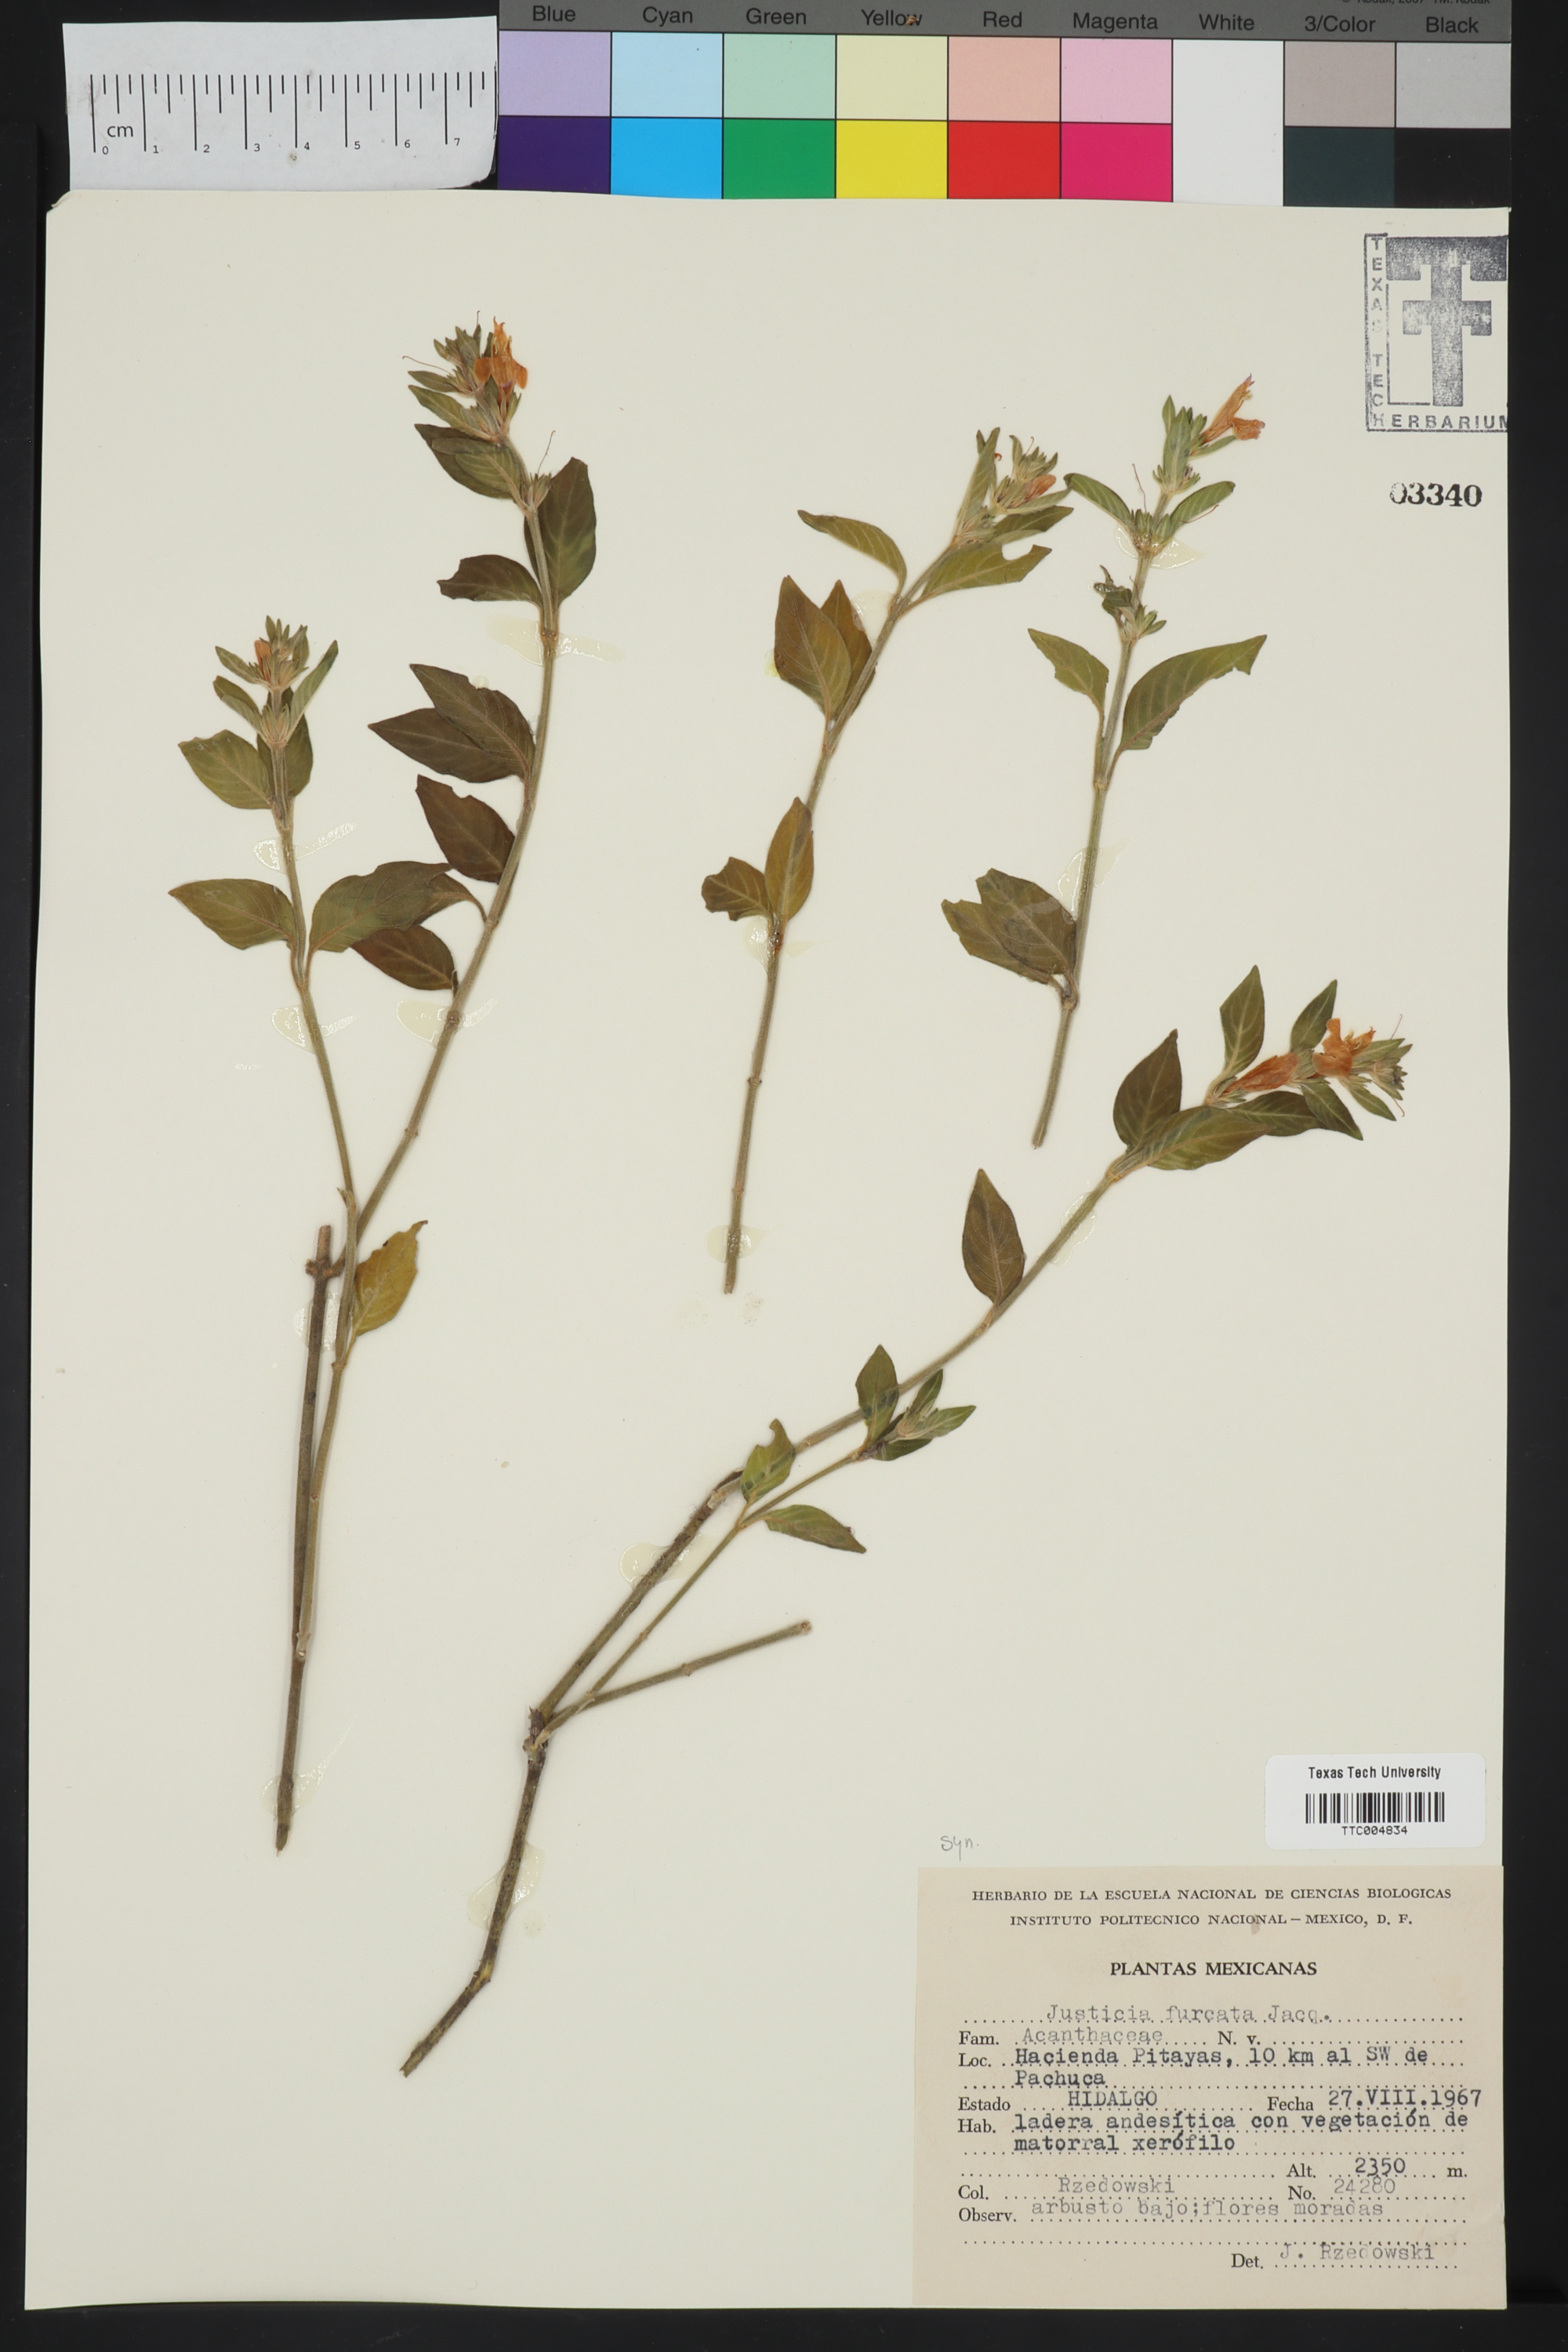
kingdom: Plantae
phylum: Tracheophyta
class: Magnoliopsida
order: Lamiales
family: Acanthaceae
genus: Ruellia
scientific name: Ruellia paniculata
